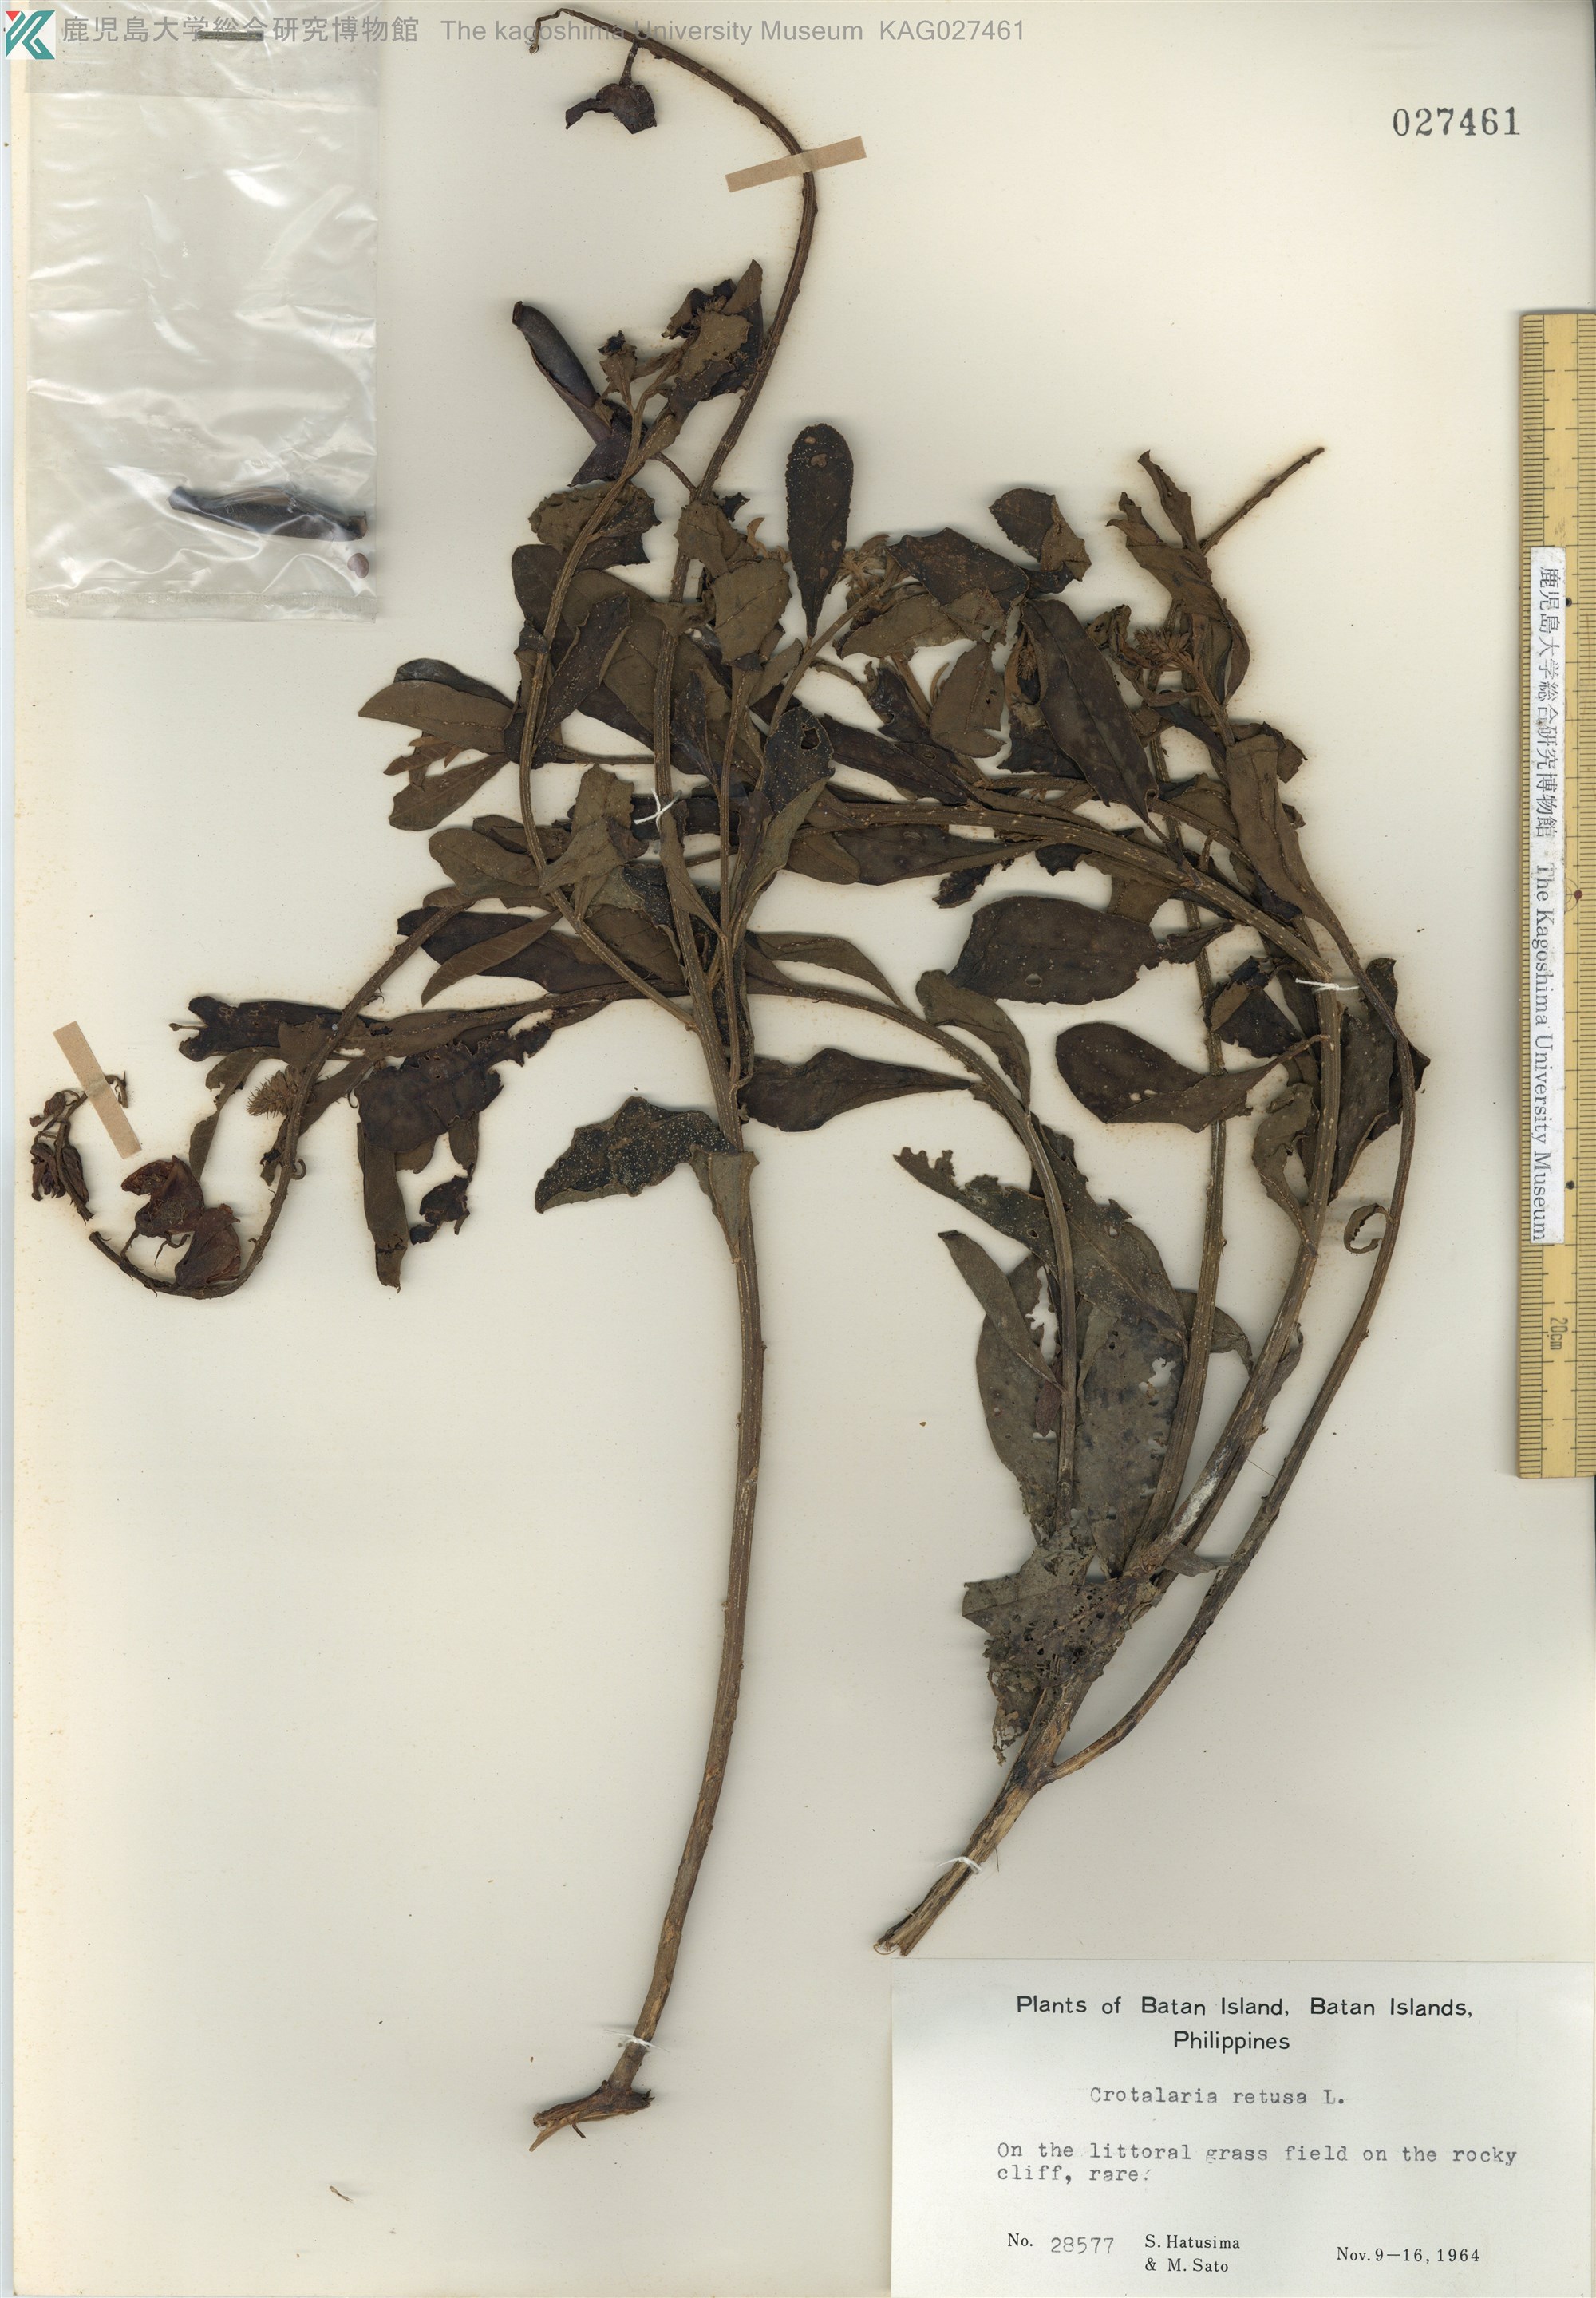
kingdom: Plantae
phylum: Tracheophyta
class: Magnoliopsida
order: Fabales
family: Fabaceae
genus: Crotalaria
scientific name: Crotalaria retusa
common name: Rattleweed
